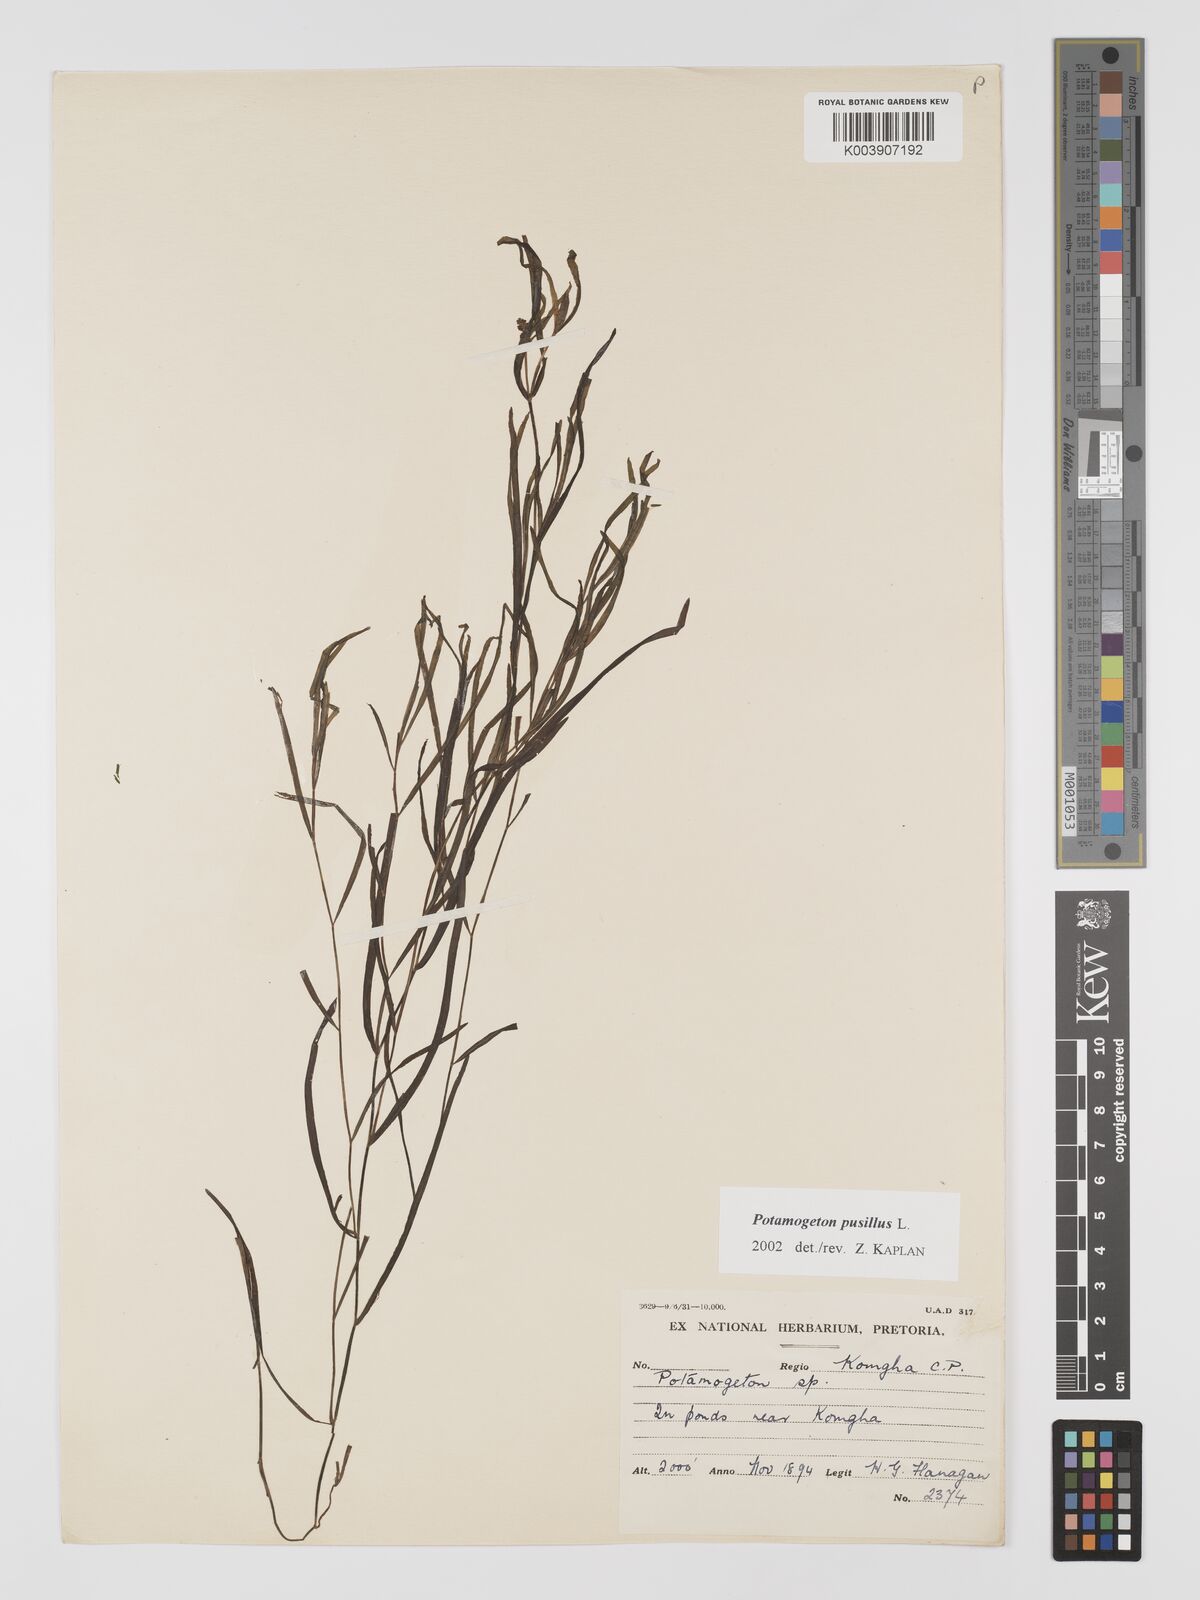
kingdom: Plantae
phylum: Tracheophyta
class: Liliopsida
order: Alismatales
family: Potamogetonaceae
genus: Potamogeton
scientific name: Potamogeton pusillus
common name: Lesser pondweed
